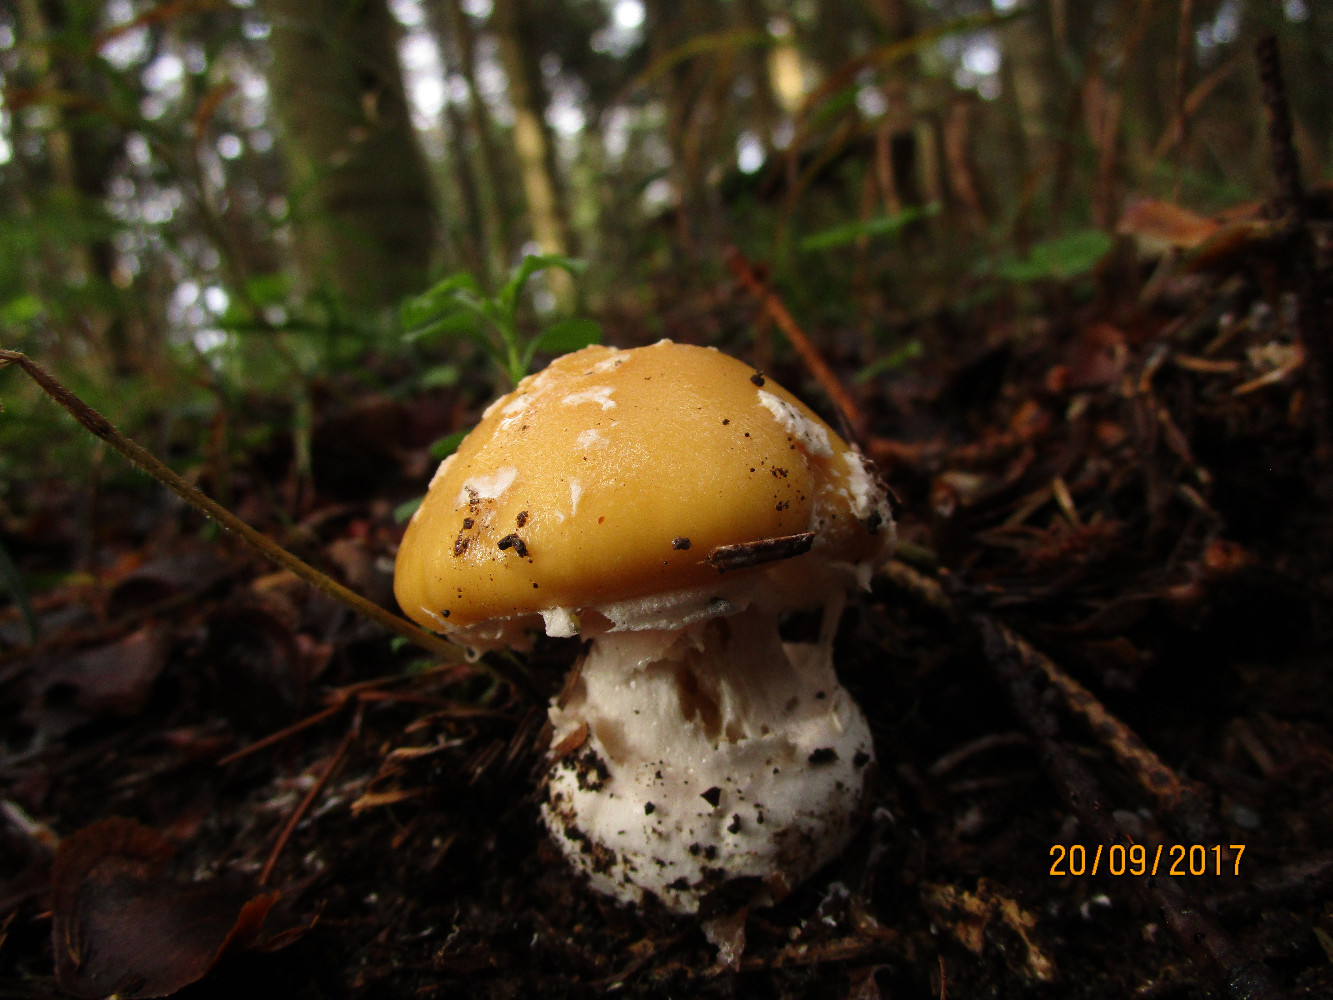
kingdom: Fungi
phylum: Basidiomycota
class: Agaricomycetes
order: Agaricales
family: Amanitaceae
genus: Amanita
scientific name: Amanita gemmata
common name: okkergul fluesvamp
